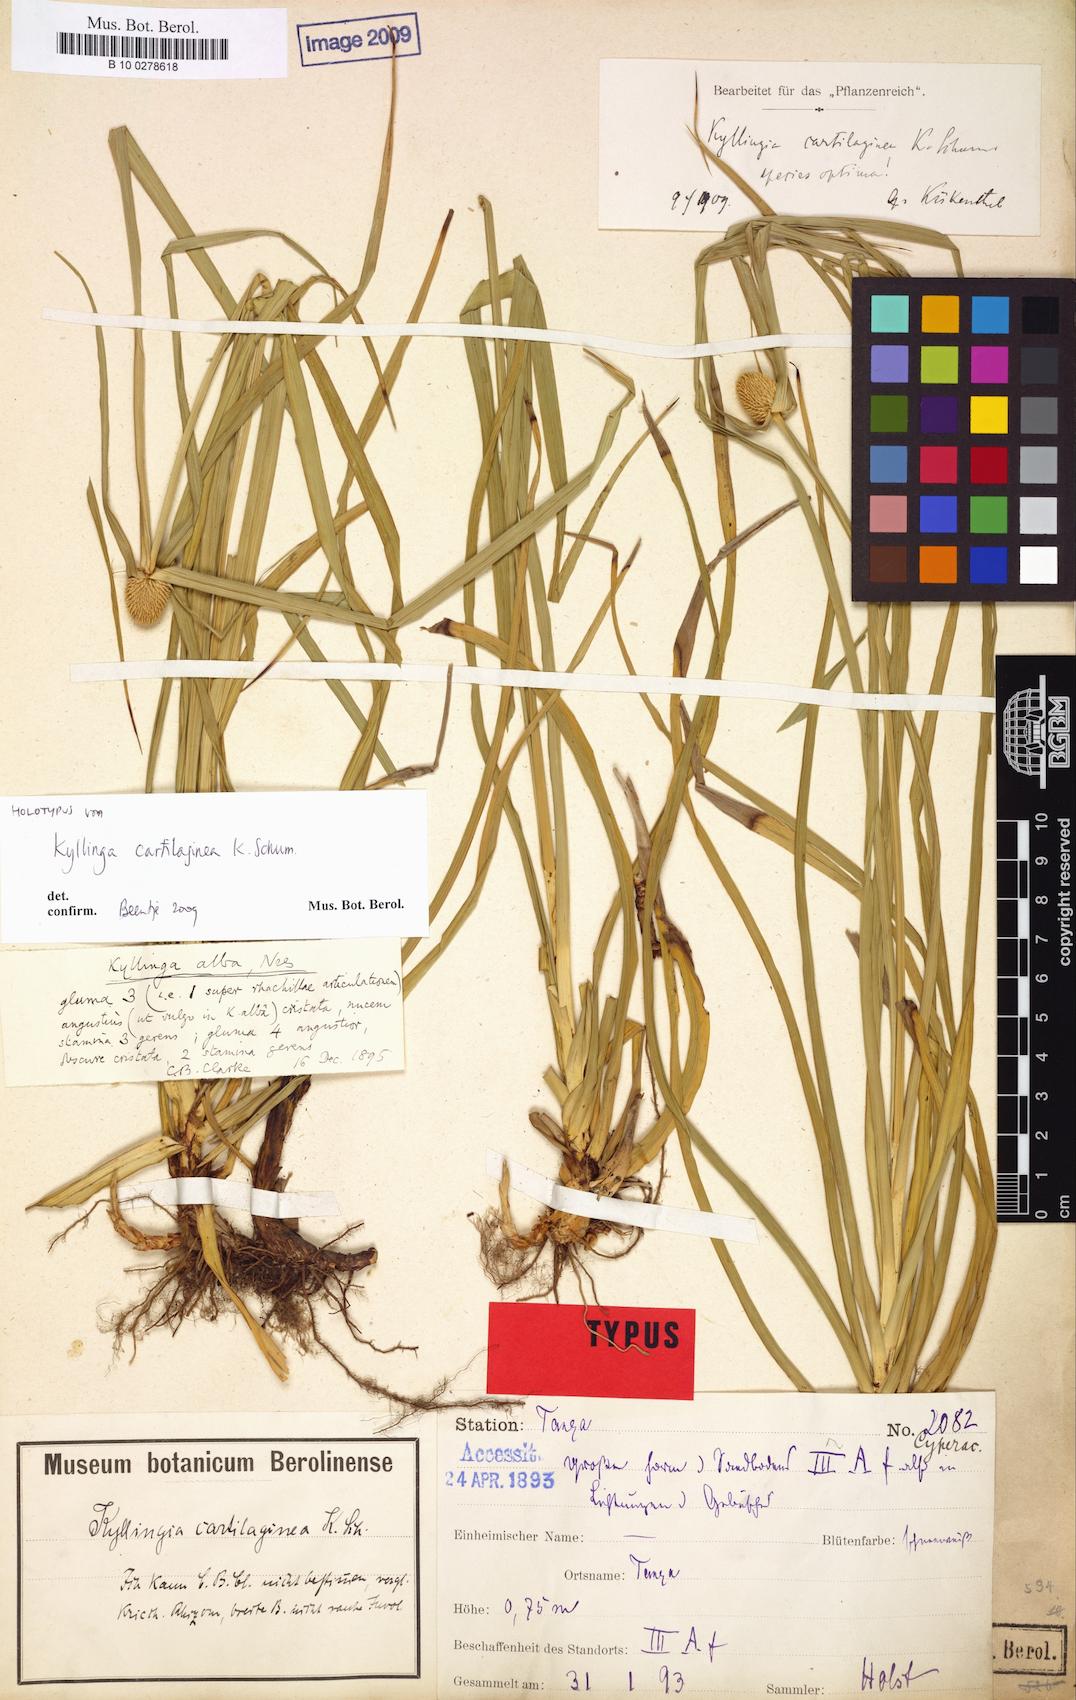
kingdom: Plantae
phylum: Tracheophyta
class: Liliopsida
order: Poales
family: Cyperaceae
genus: Cyperus
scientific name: Cyperus cartilagineus
